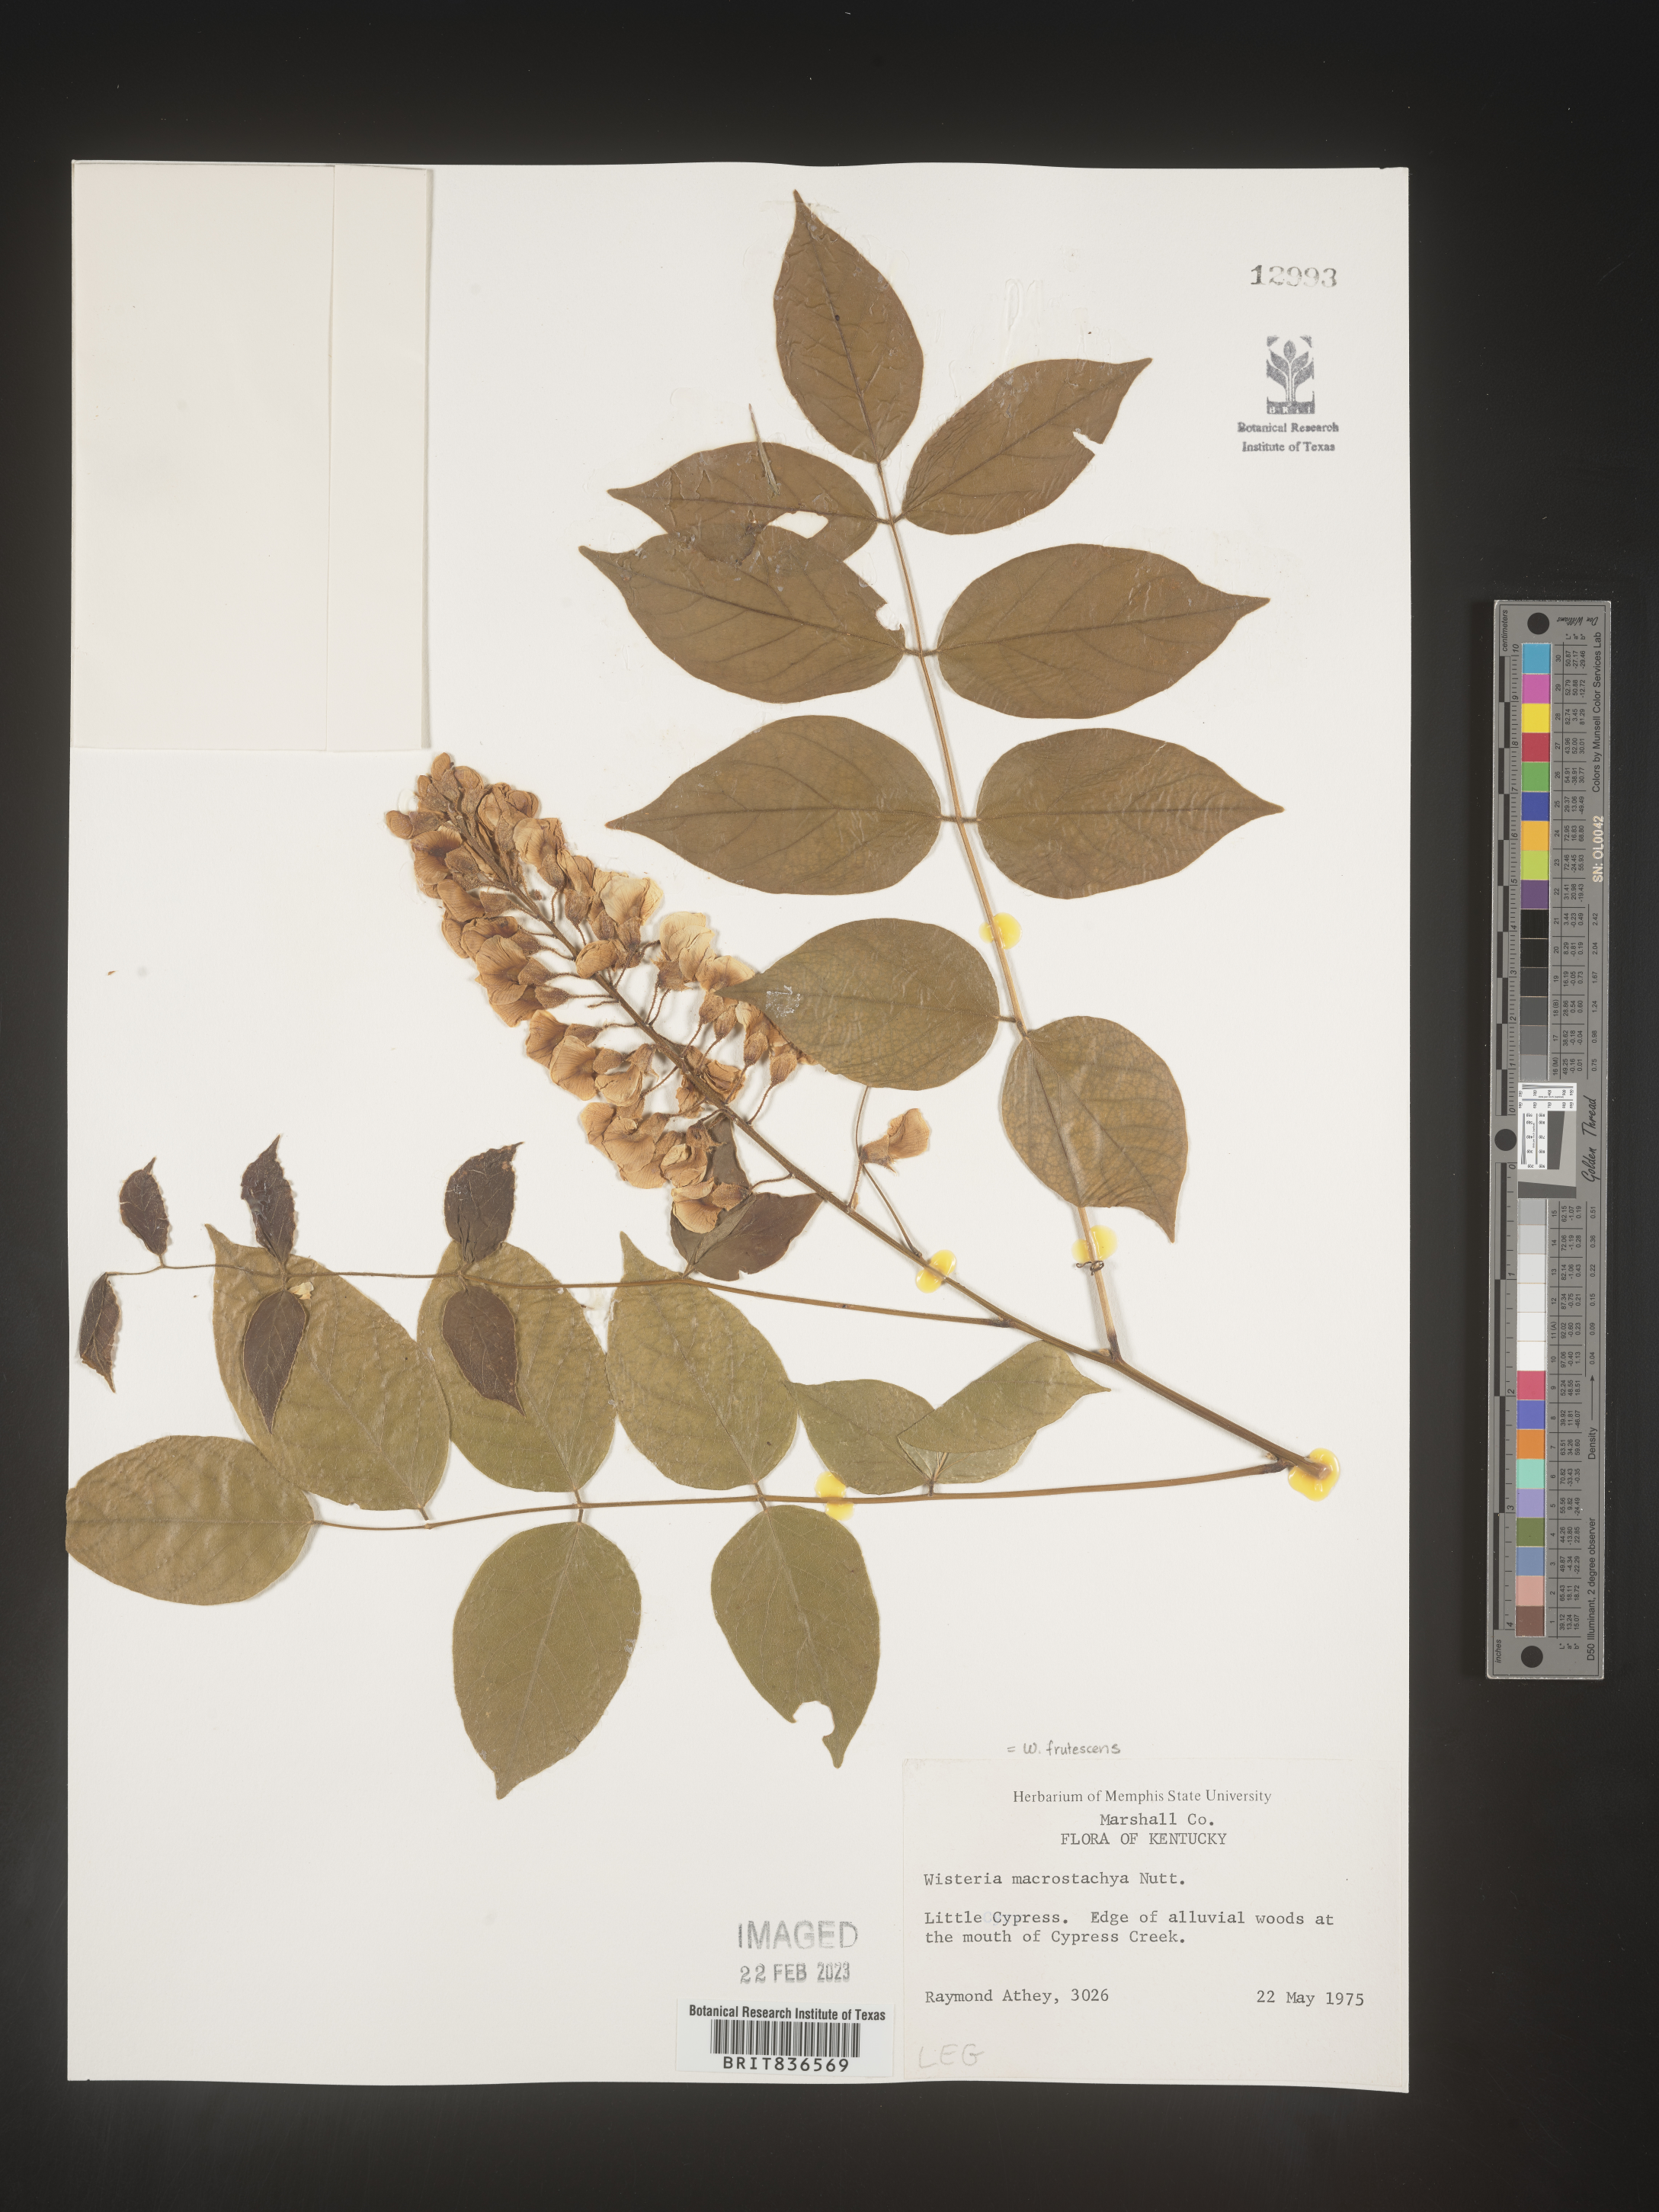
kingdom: Plantae
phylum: Tracheophyta
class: Magnoliopsida
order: Fabales
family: Fabaceae
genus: Wisteria
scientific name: Wisteria
